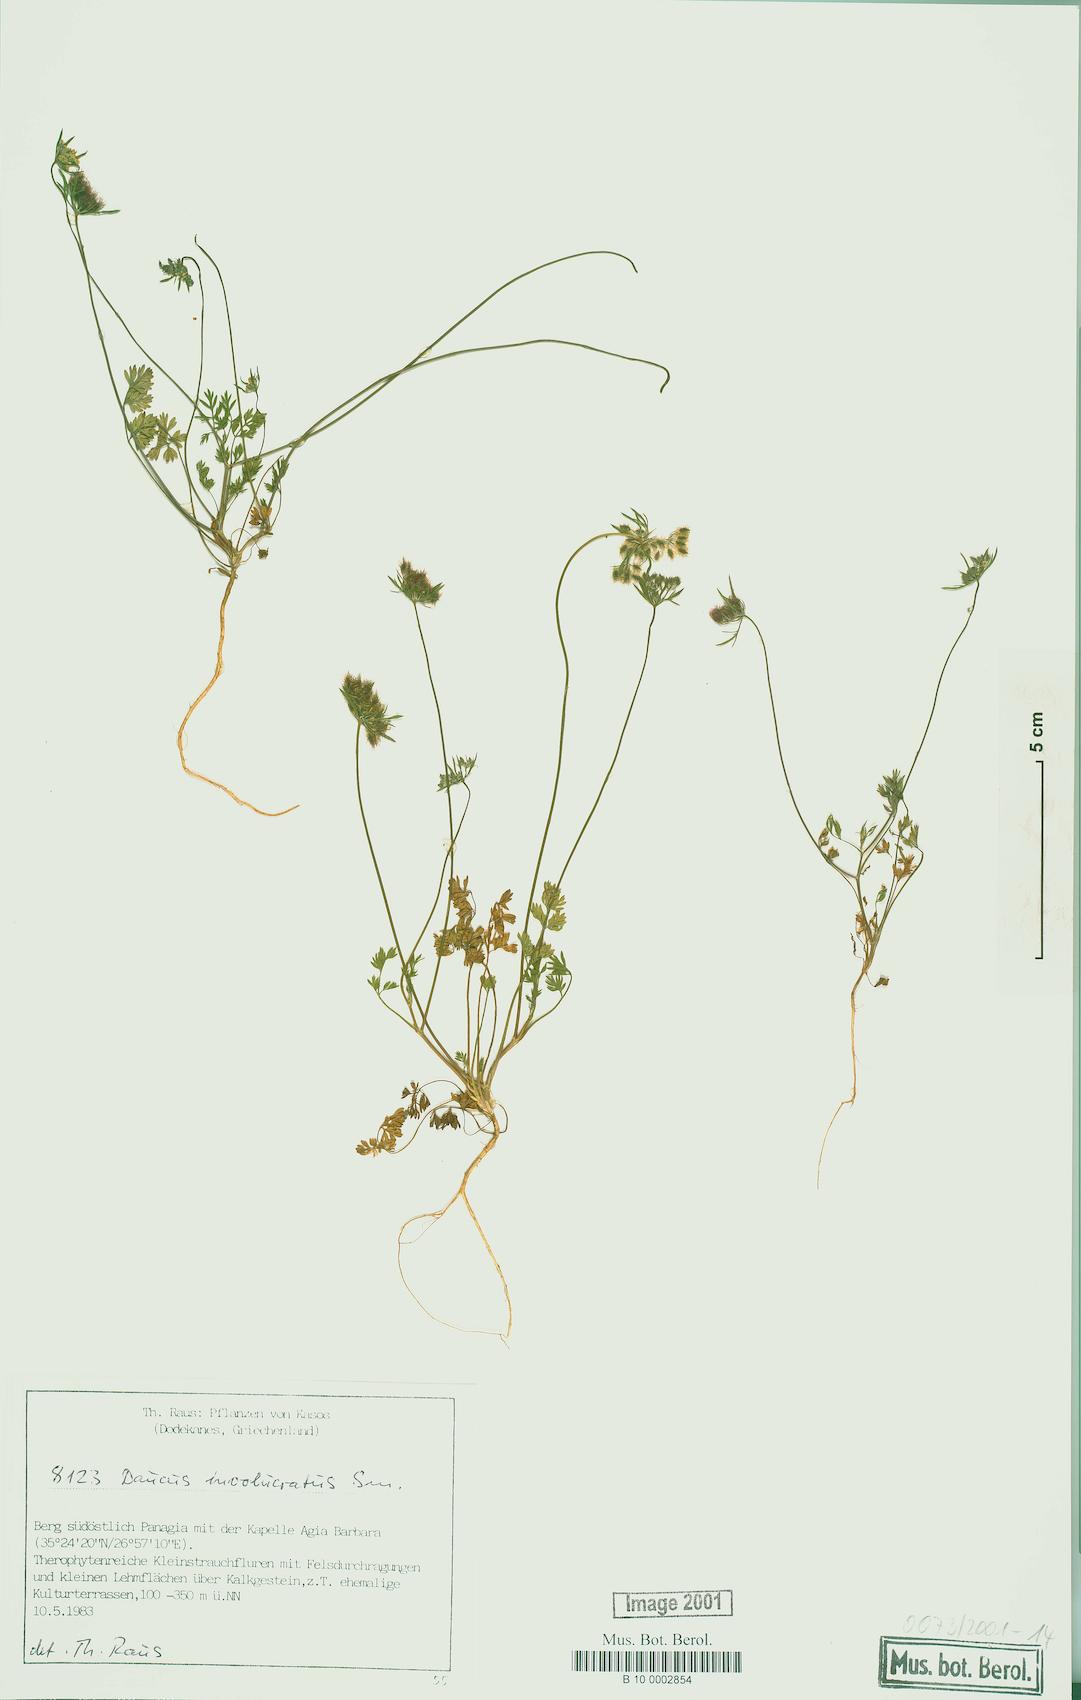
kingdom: Plantae
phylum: Tracheophyta
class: Magnoliopsida
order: Apiales
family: Apiaceae
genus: Daucus
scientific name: Daucus involucratus
